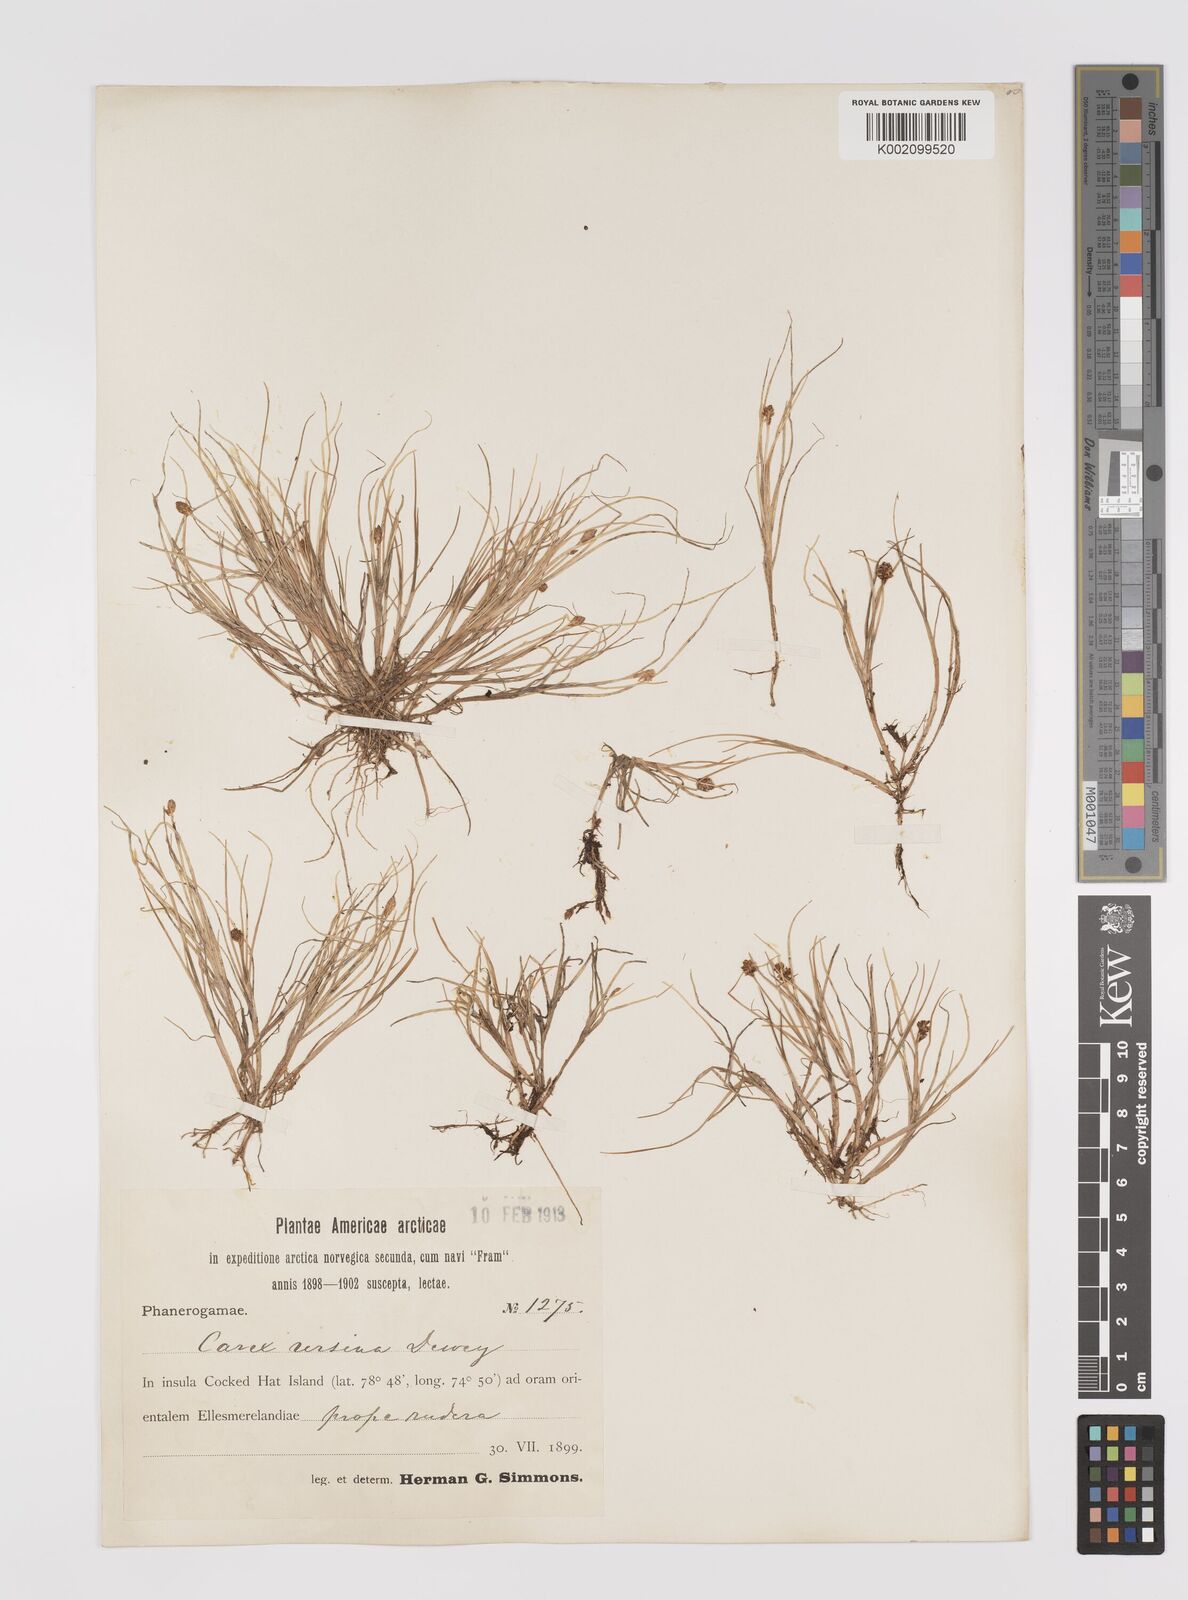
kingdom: Plantae
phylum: Tracheophyta
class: Liliopsida
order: Poales
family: Cyperaceae
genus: Carex
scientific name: Carex ursina
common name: Bear sedge
